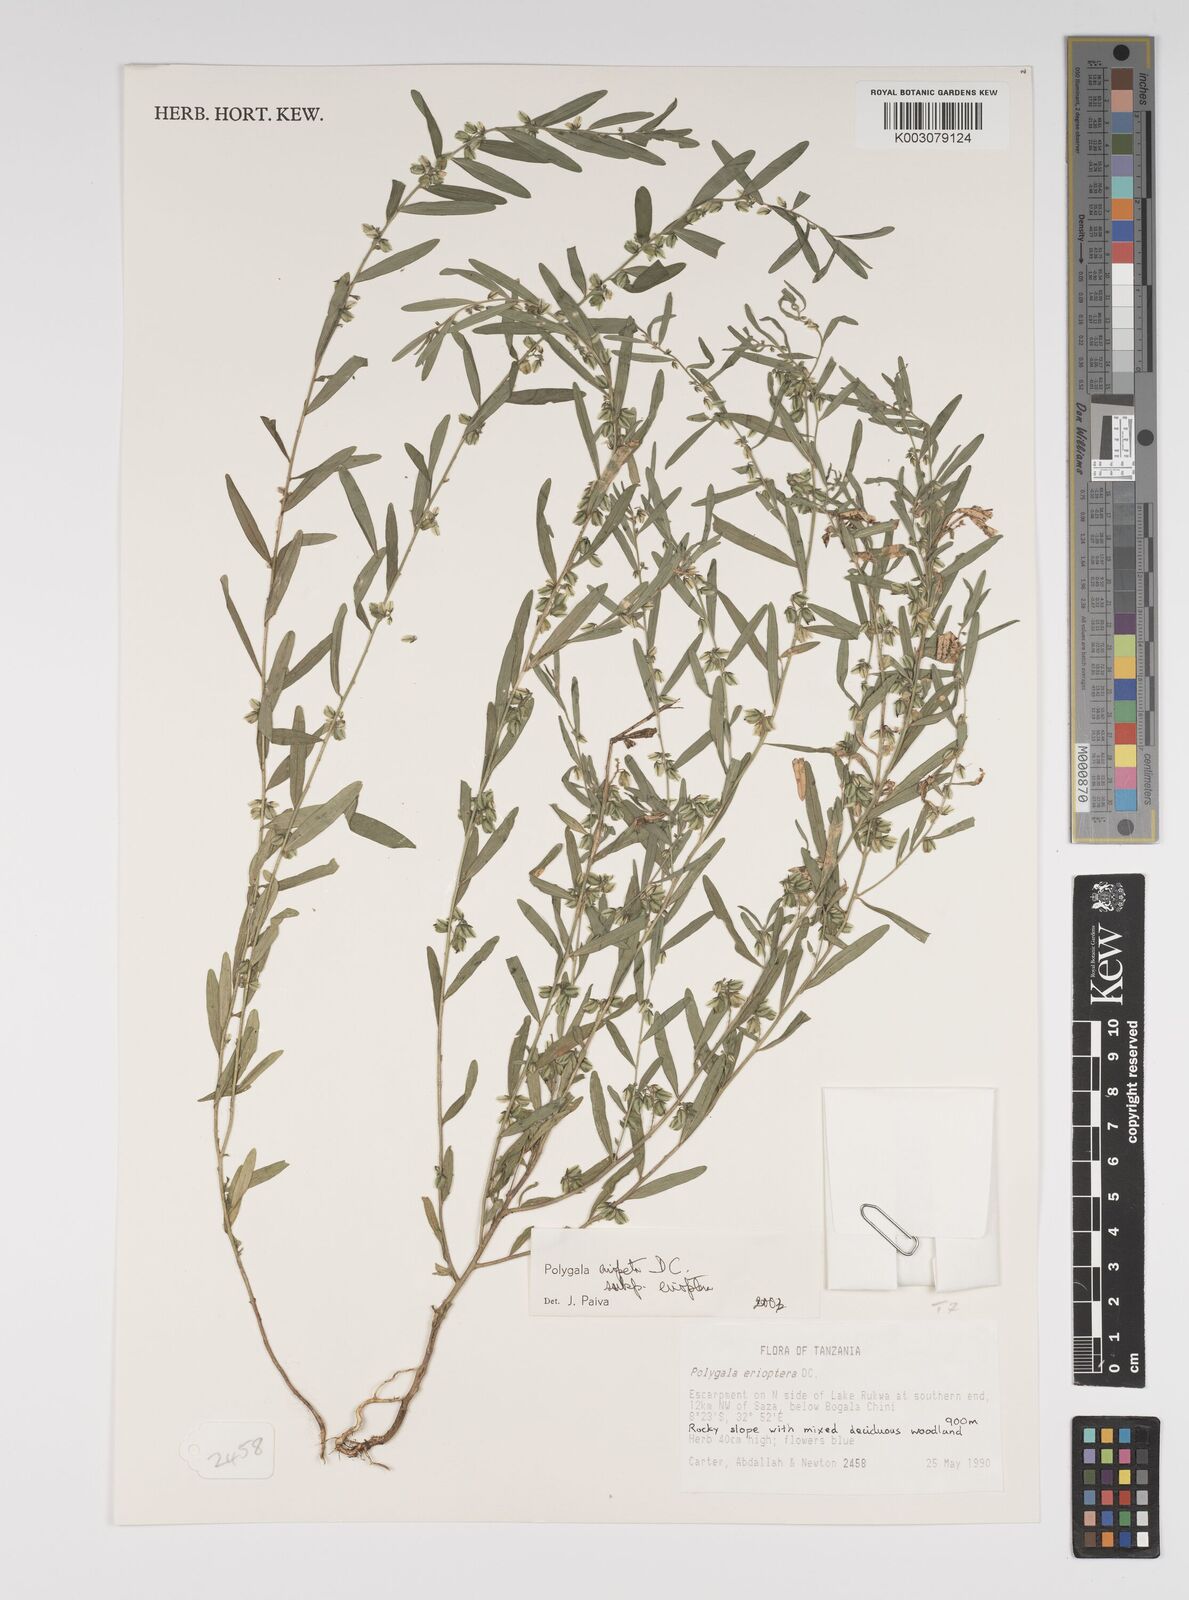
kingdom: Plantae
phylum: Tracheophyta
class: Magnoliopsida
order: Fabales
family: Polygalaceae
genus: Polygala
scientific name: Polygala erioptera
